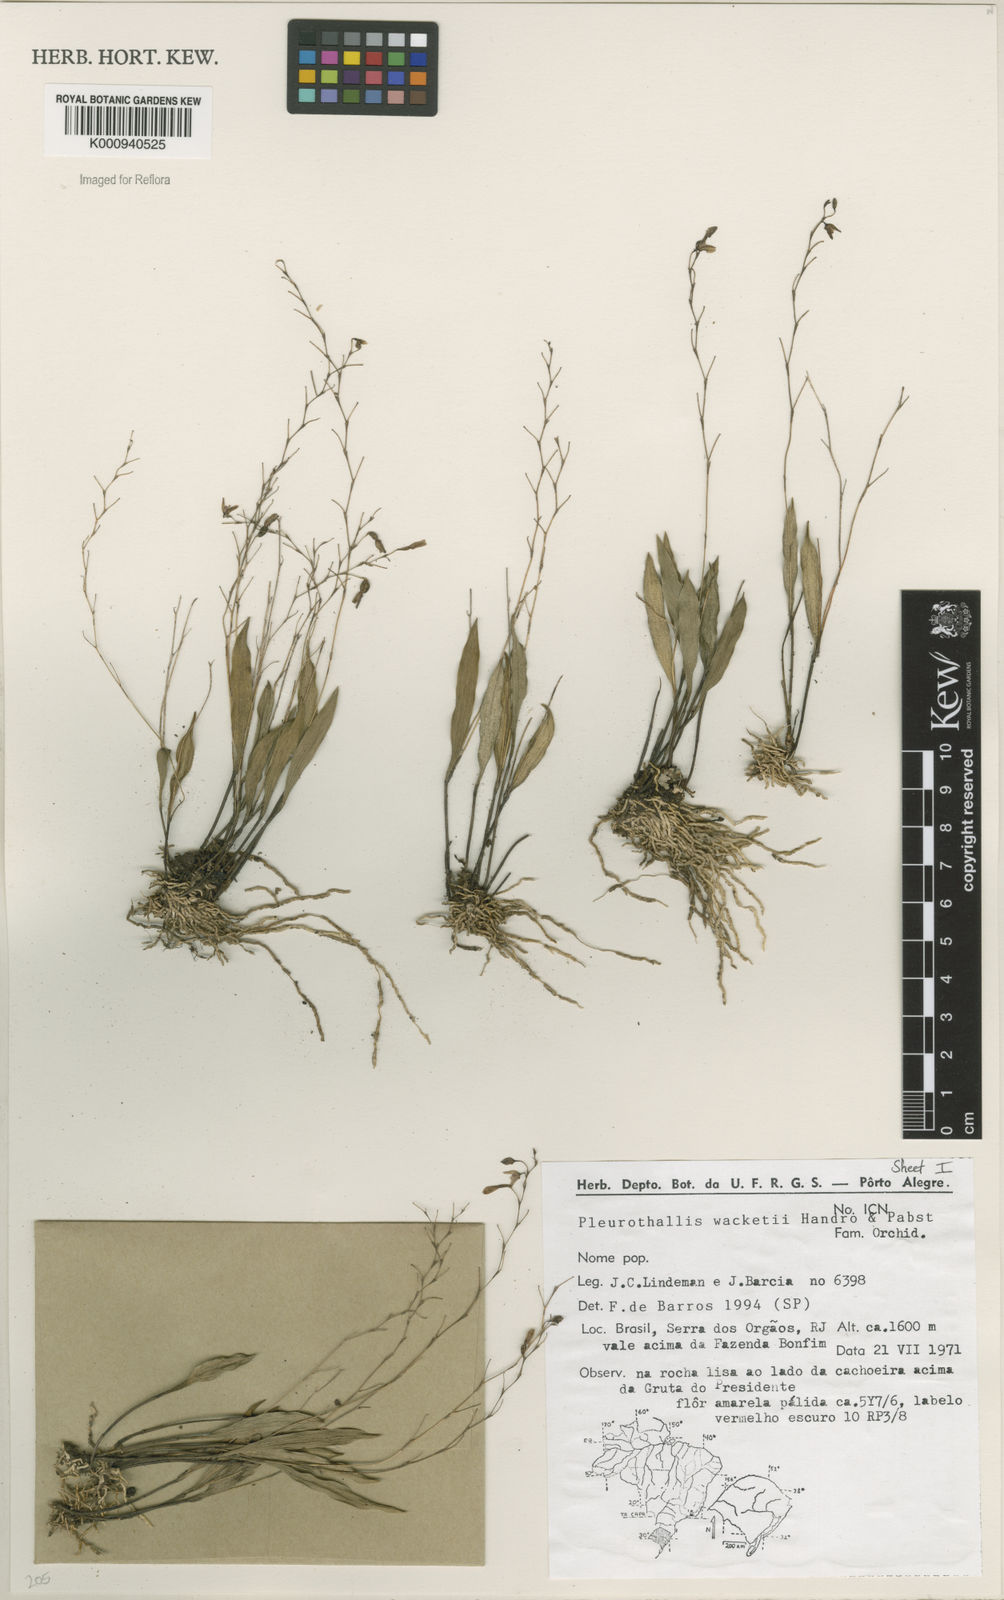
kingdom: Plantae
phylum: Tracheophyta
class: Liliopsida
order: Asparagales
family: Orchidaceae
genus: Pabstiella
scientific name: Pabstiella wacketii
